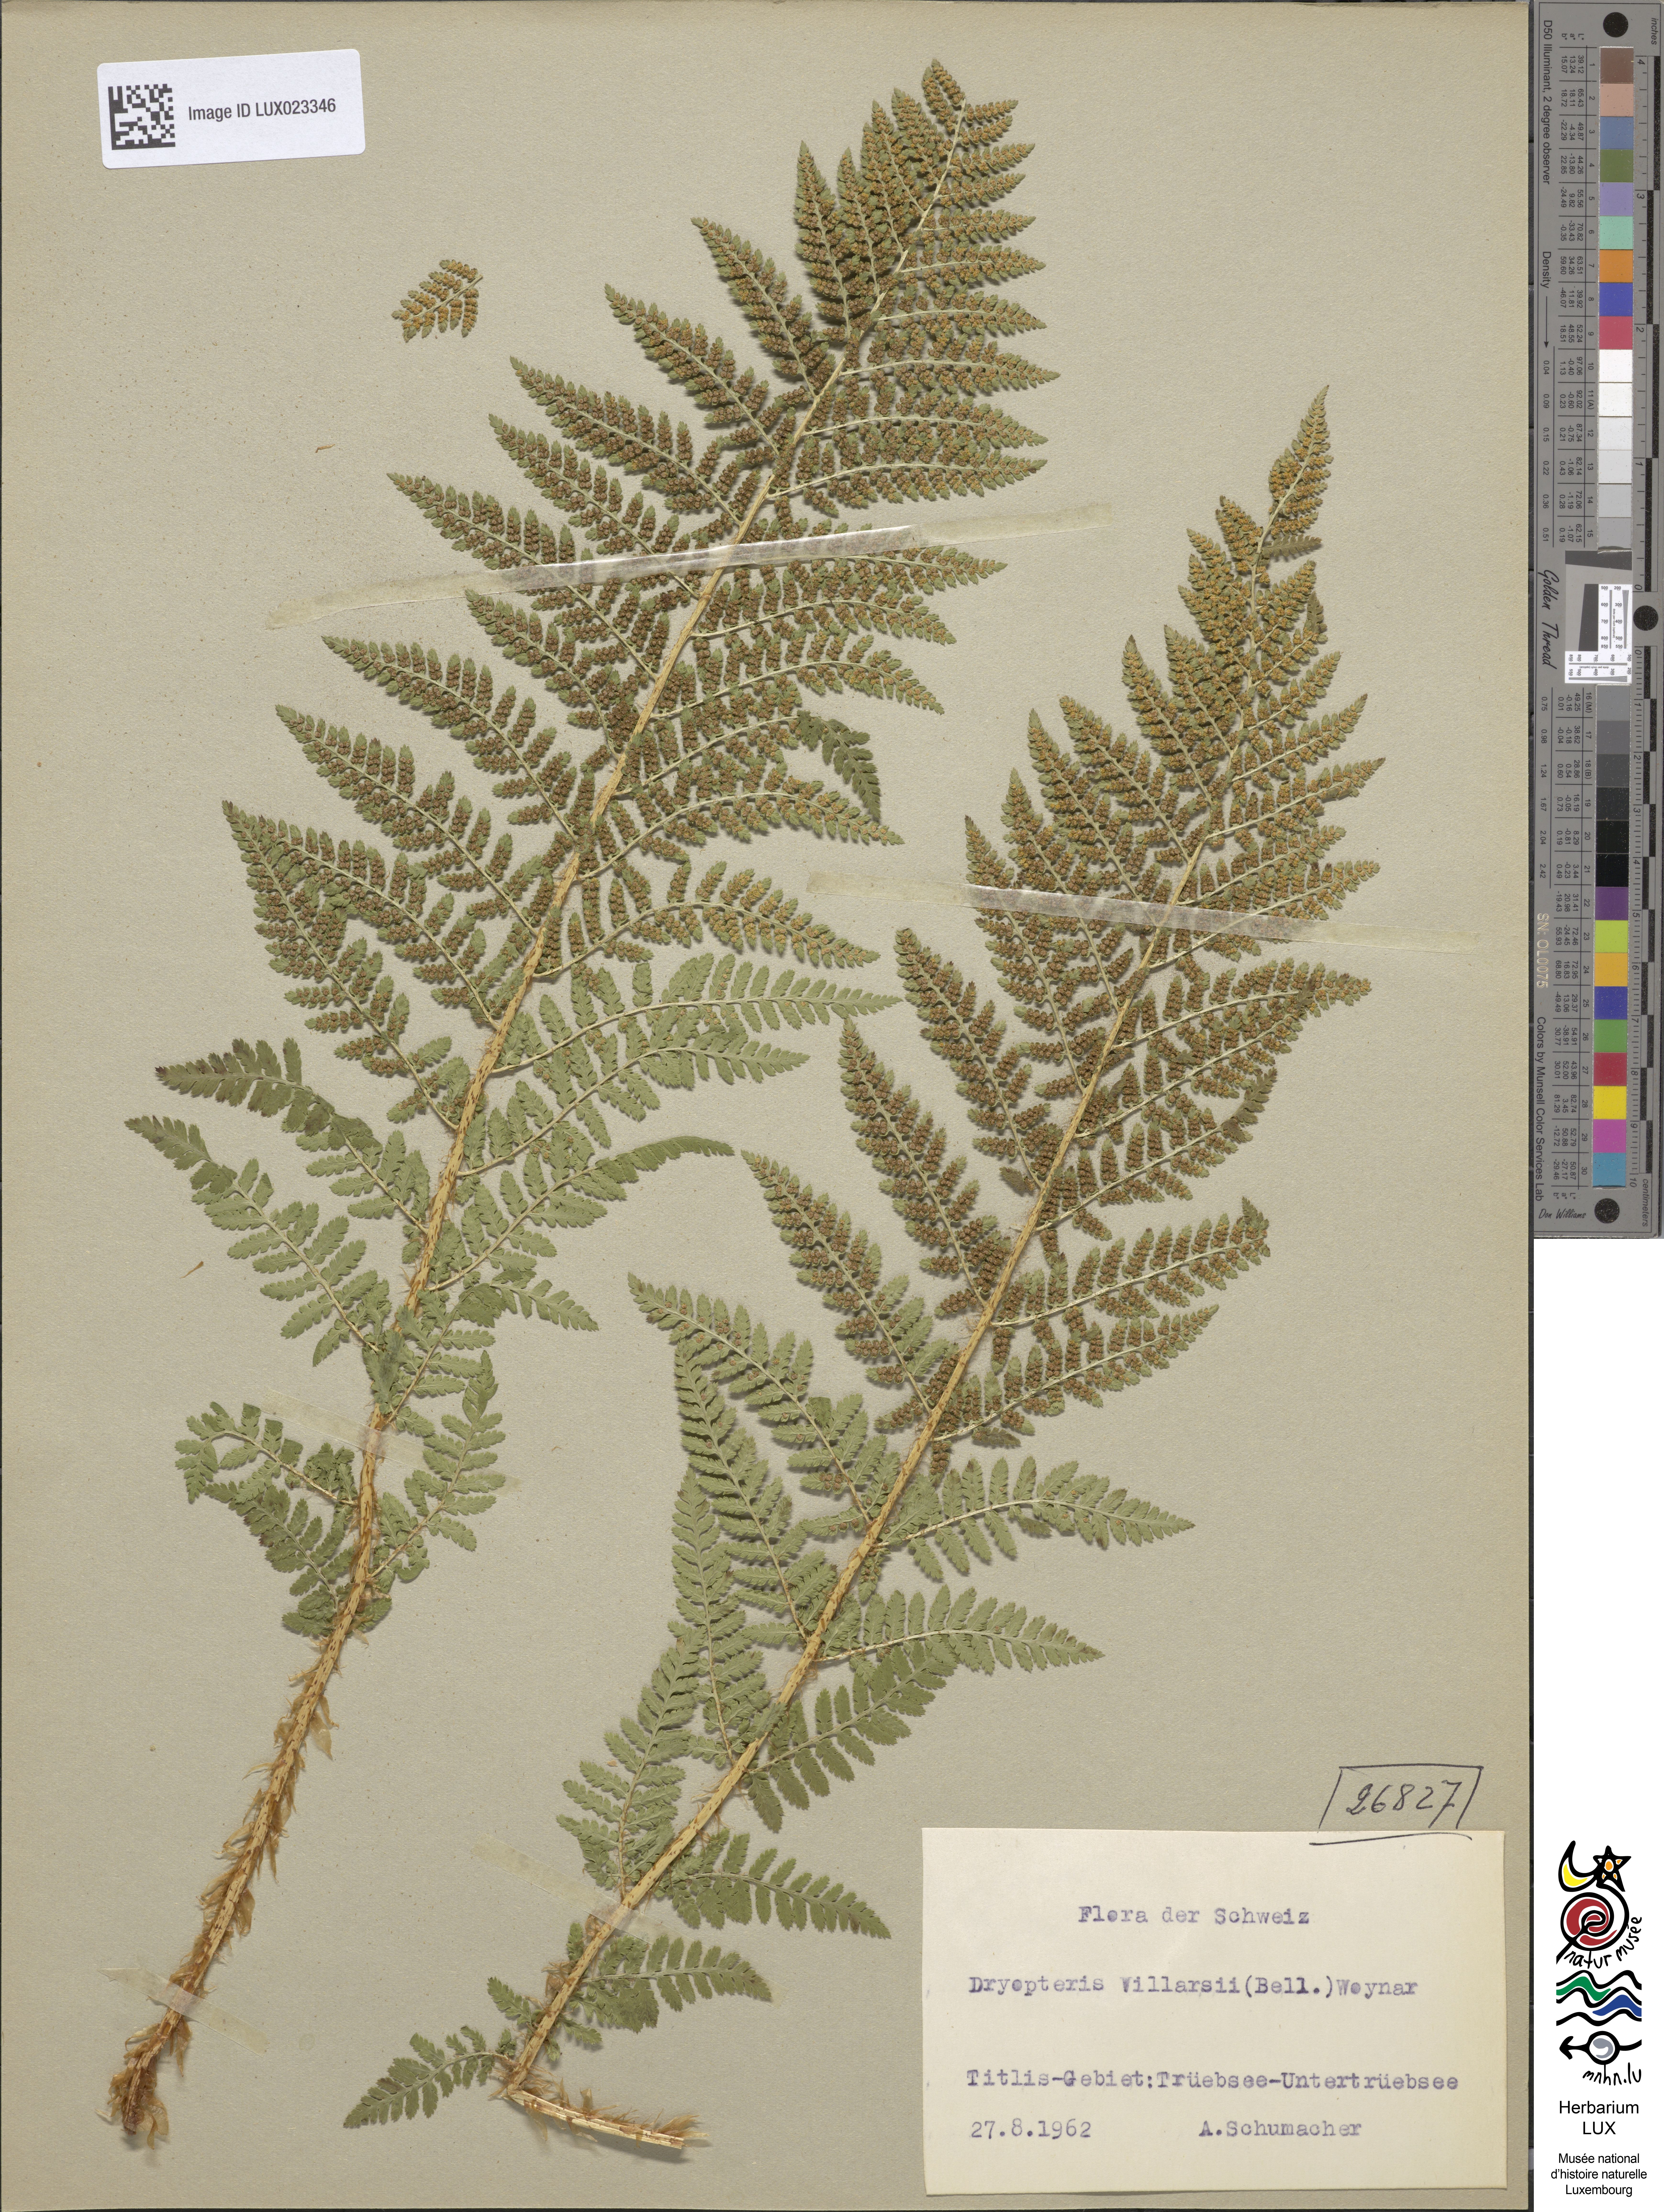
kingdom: Plantae
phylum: Tracheophyta
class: Polypodiopsida
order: Polypodiales
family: Dryopteridaceae
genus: Dryopteris
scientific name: Dryopteris villarii
